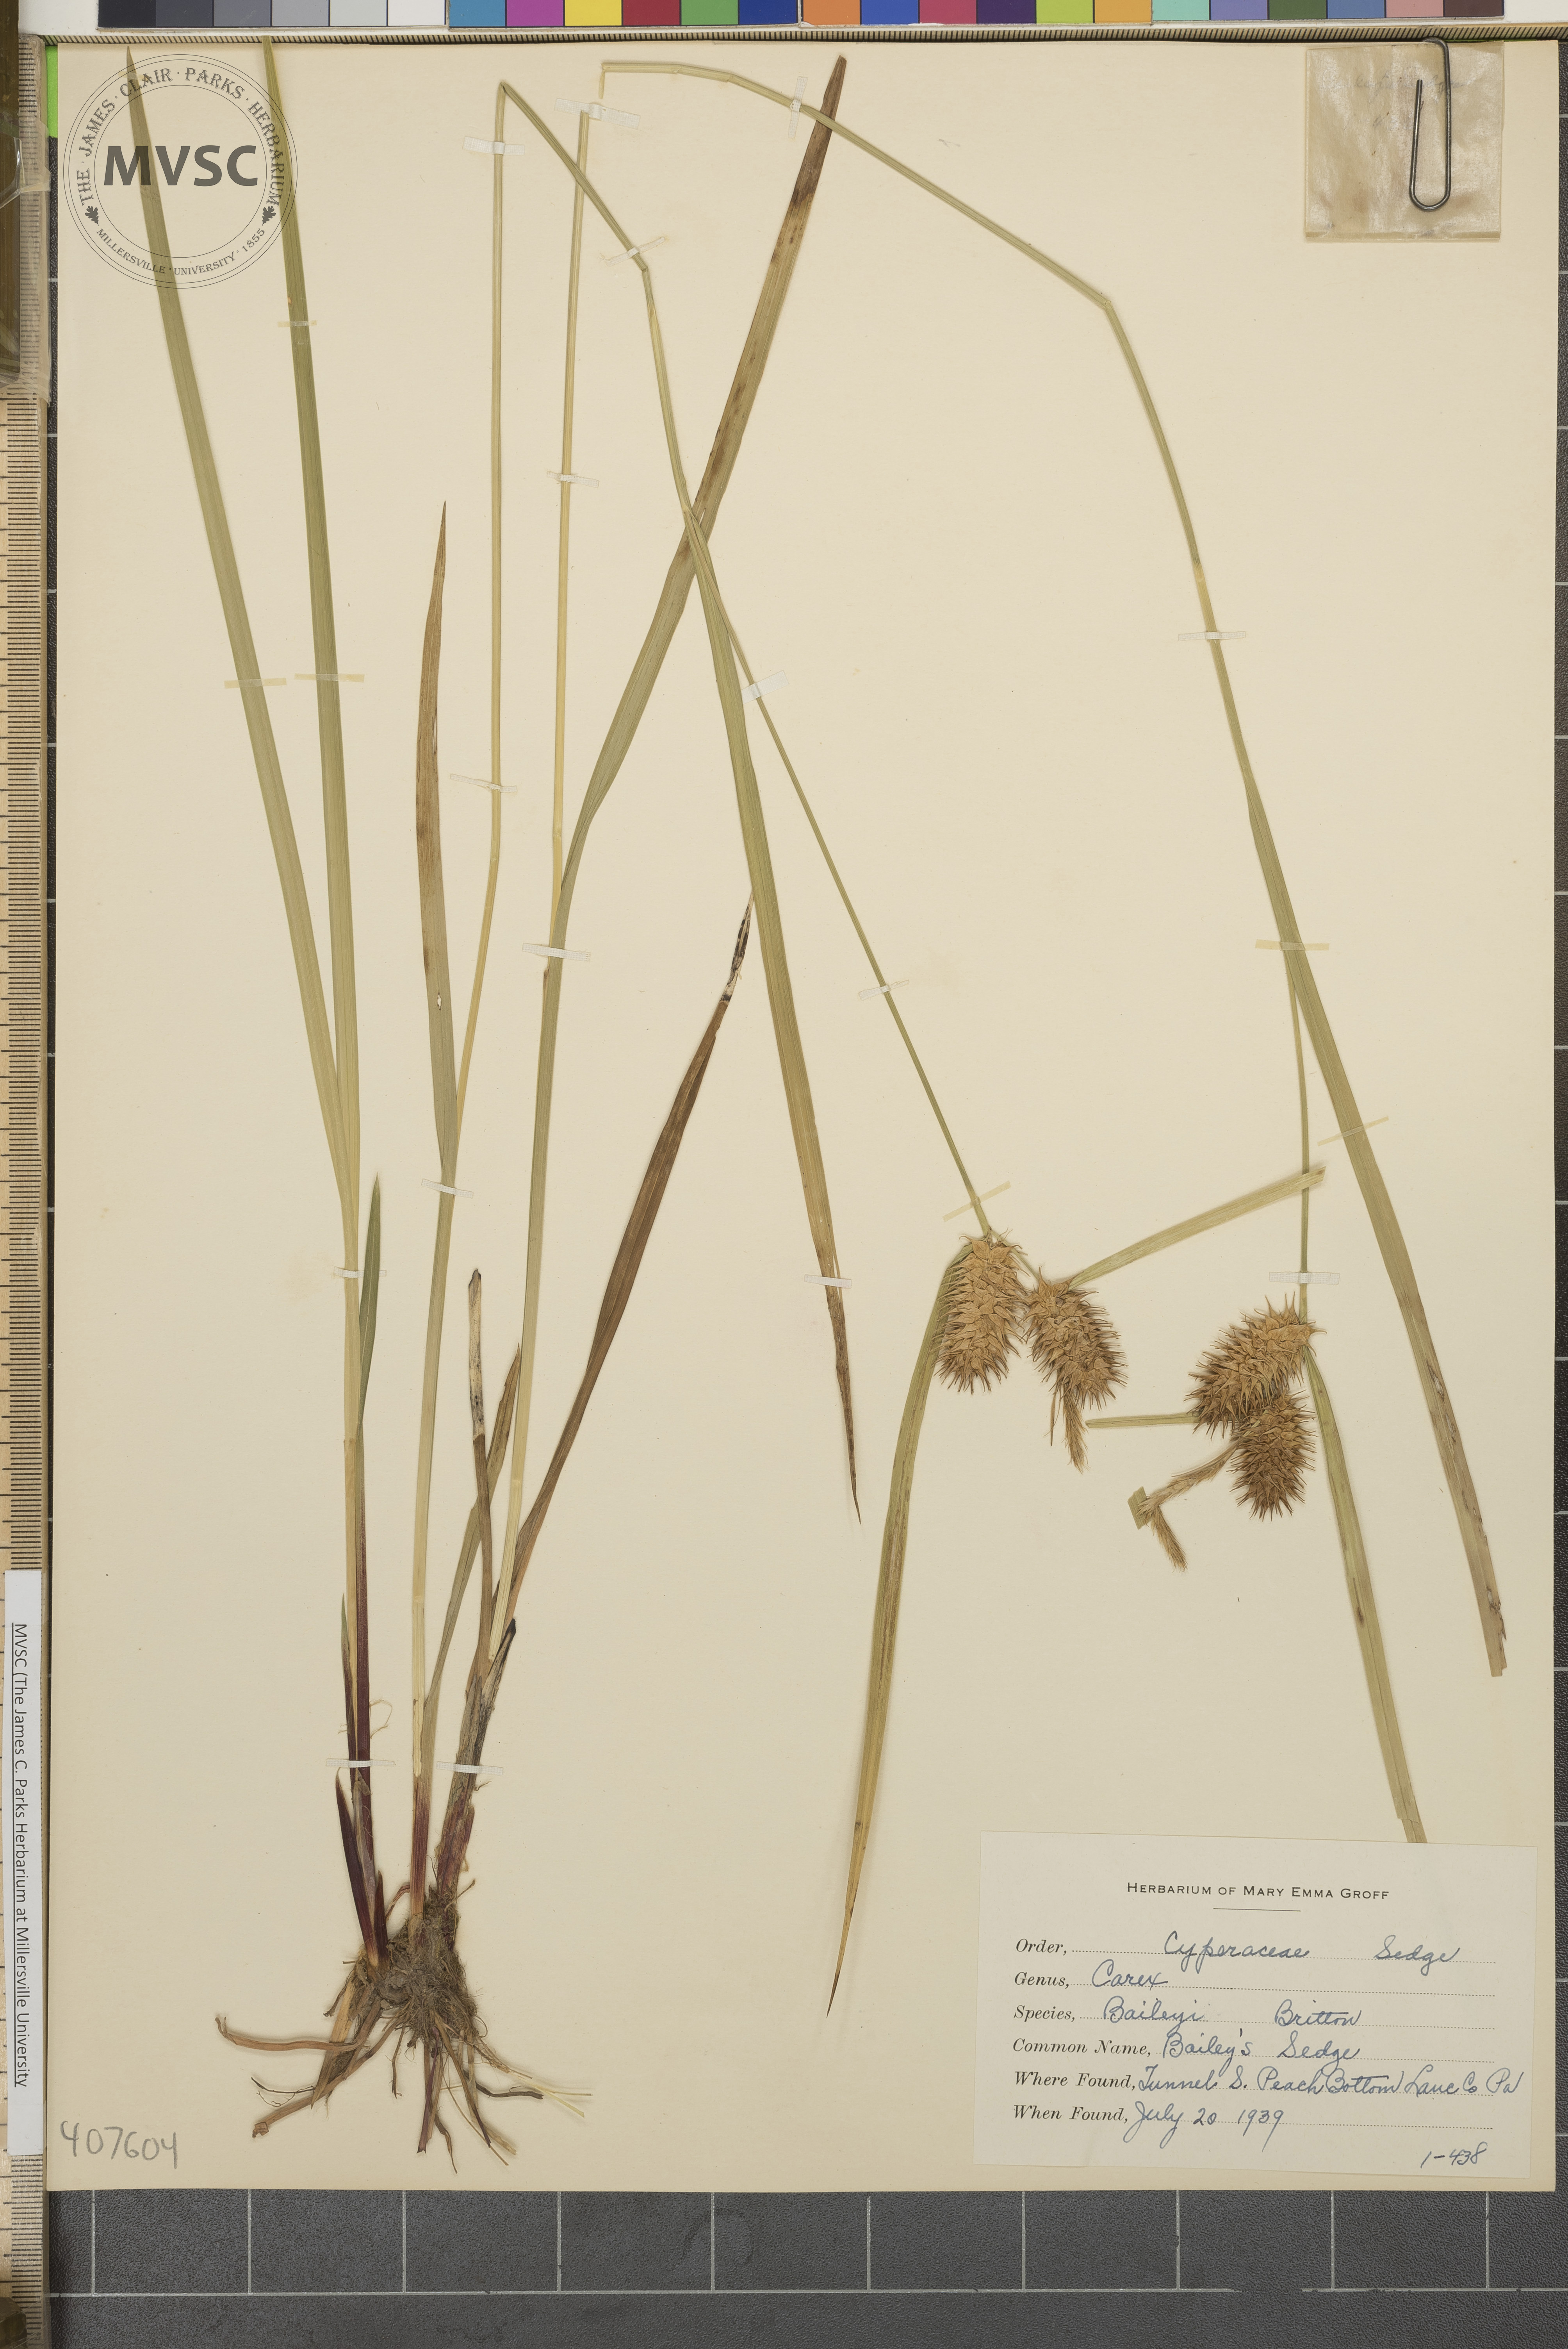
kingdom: Plantae
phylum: Tracheophyta
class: Liliopsida
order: Poales
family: Cyperaceae
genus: Carex
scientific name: Carex lurida
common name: Sallow sedge
